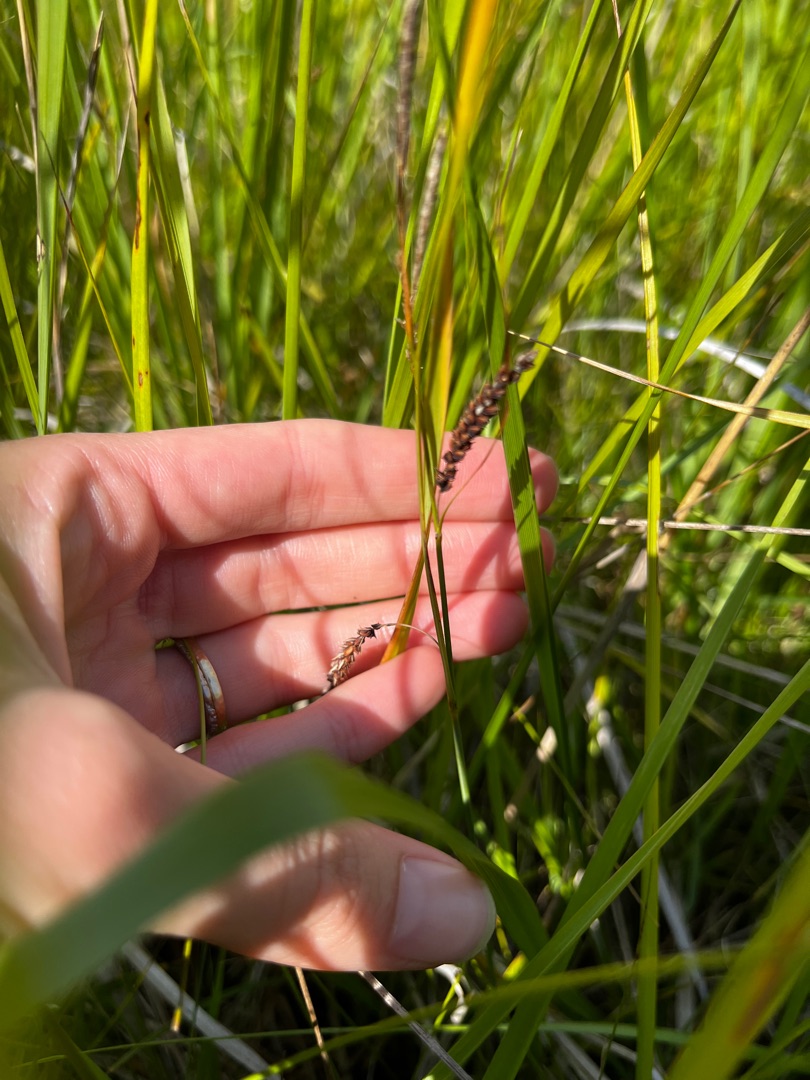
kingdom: Plantae
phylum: Tracheophyta
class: Liliopsida
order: Poales
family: Cyperaceae
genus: Carex
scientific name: Carex flacca
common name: Blågrøn star
